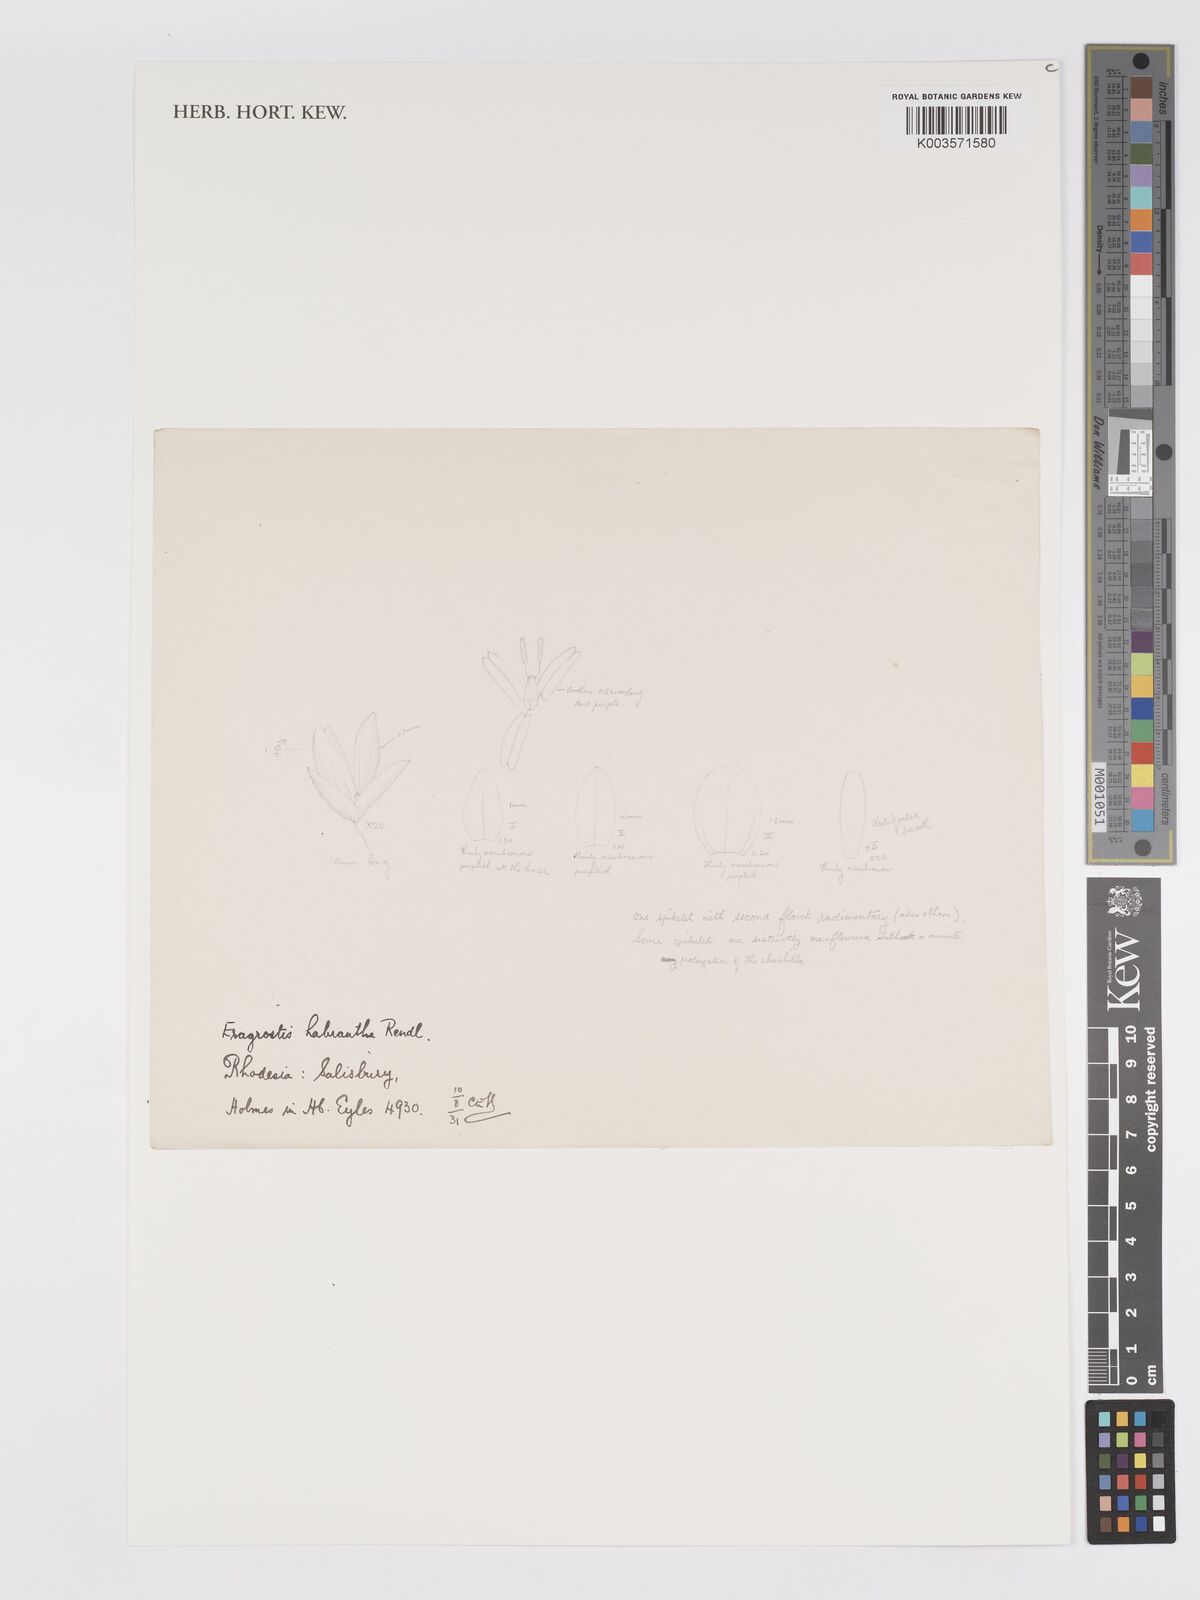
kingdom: Plantae
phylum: Tracheophyta
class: Liliopsida
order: Poales
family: Poaceae
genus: Eragrostis
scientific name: Eragrostis habrantha
